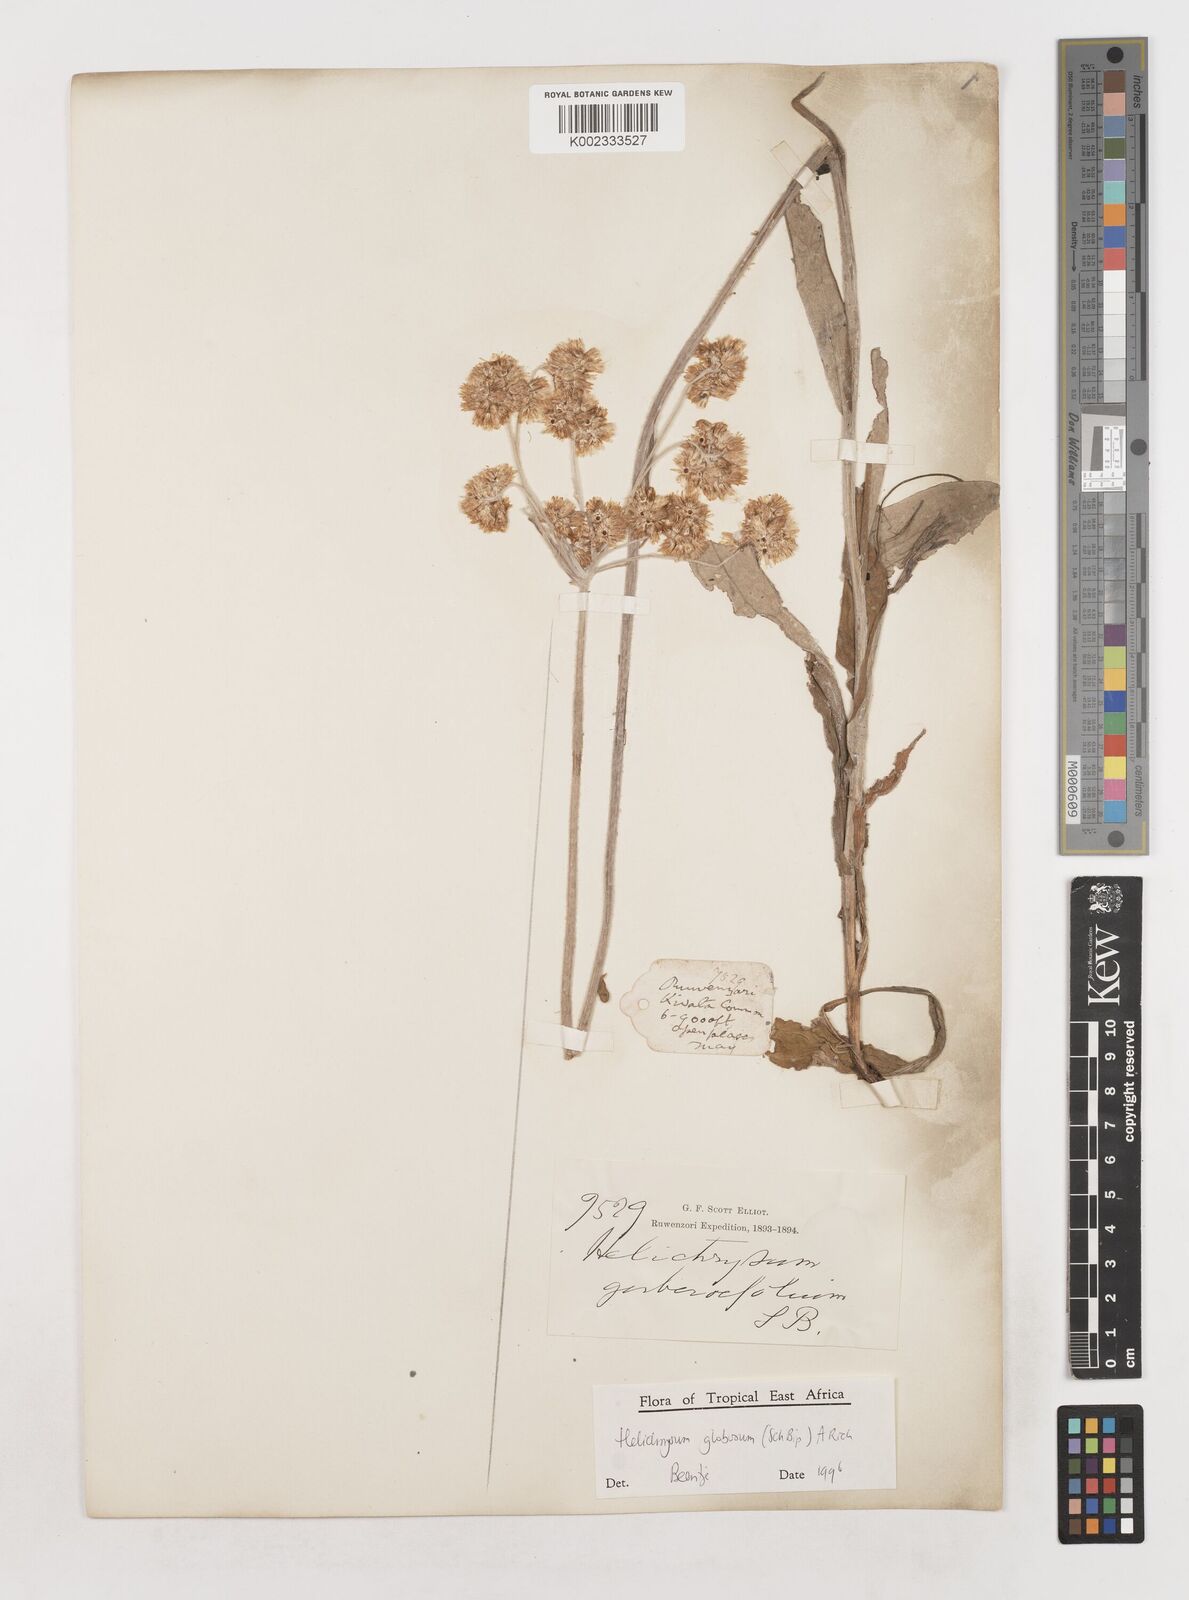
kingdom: Plantae
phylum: Tracheophyta
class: Magnoliopsida
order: Asterales
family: Asteraceae
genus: Helichrysum
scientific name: Helichrysum globosum
